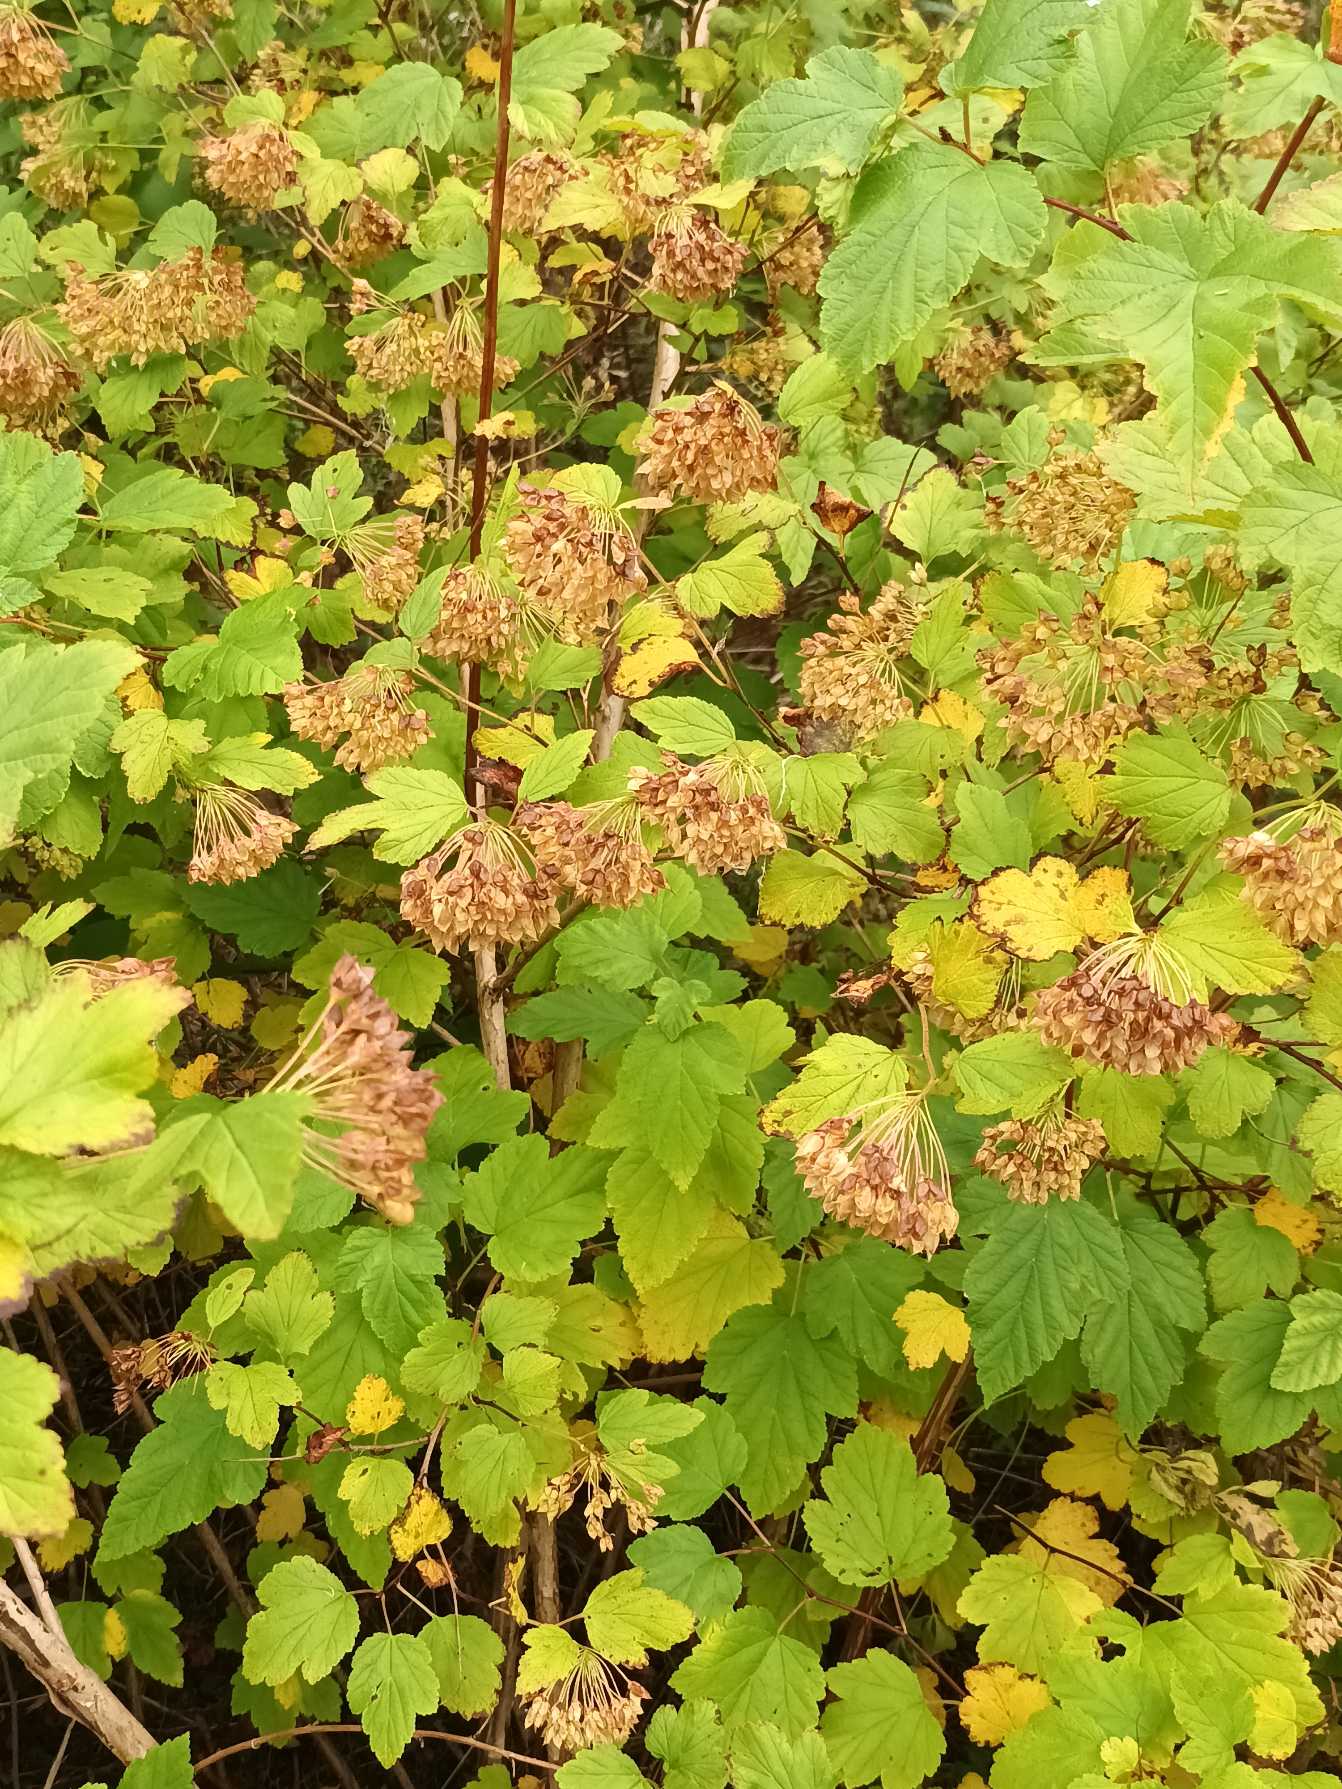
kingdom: Plantae
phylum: Tracheophyta
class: Magnoliopsida
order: Rosales
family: Rosaceae
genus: Physocarpus
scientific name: Physocarpus opulifolius
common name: Almindelig blærespiræa
